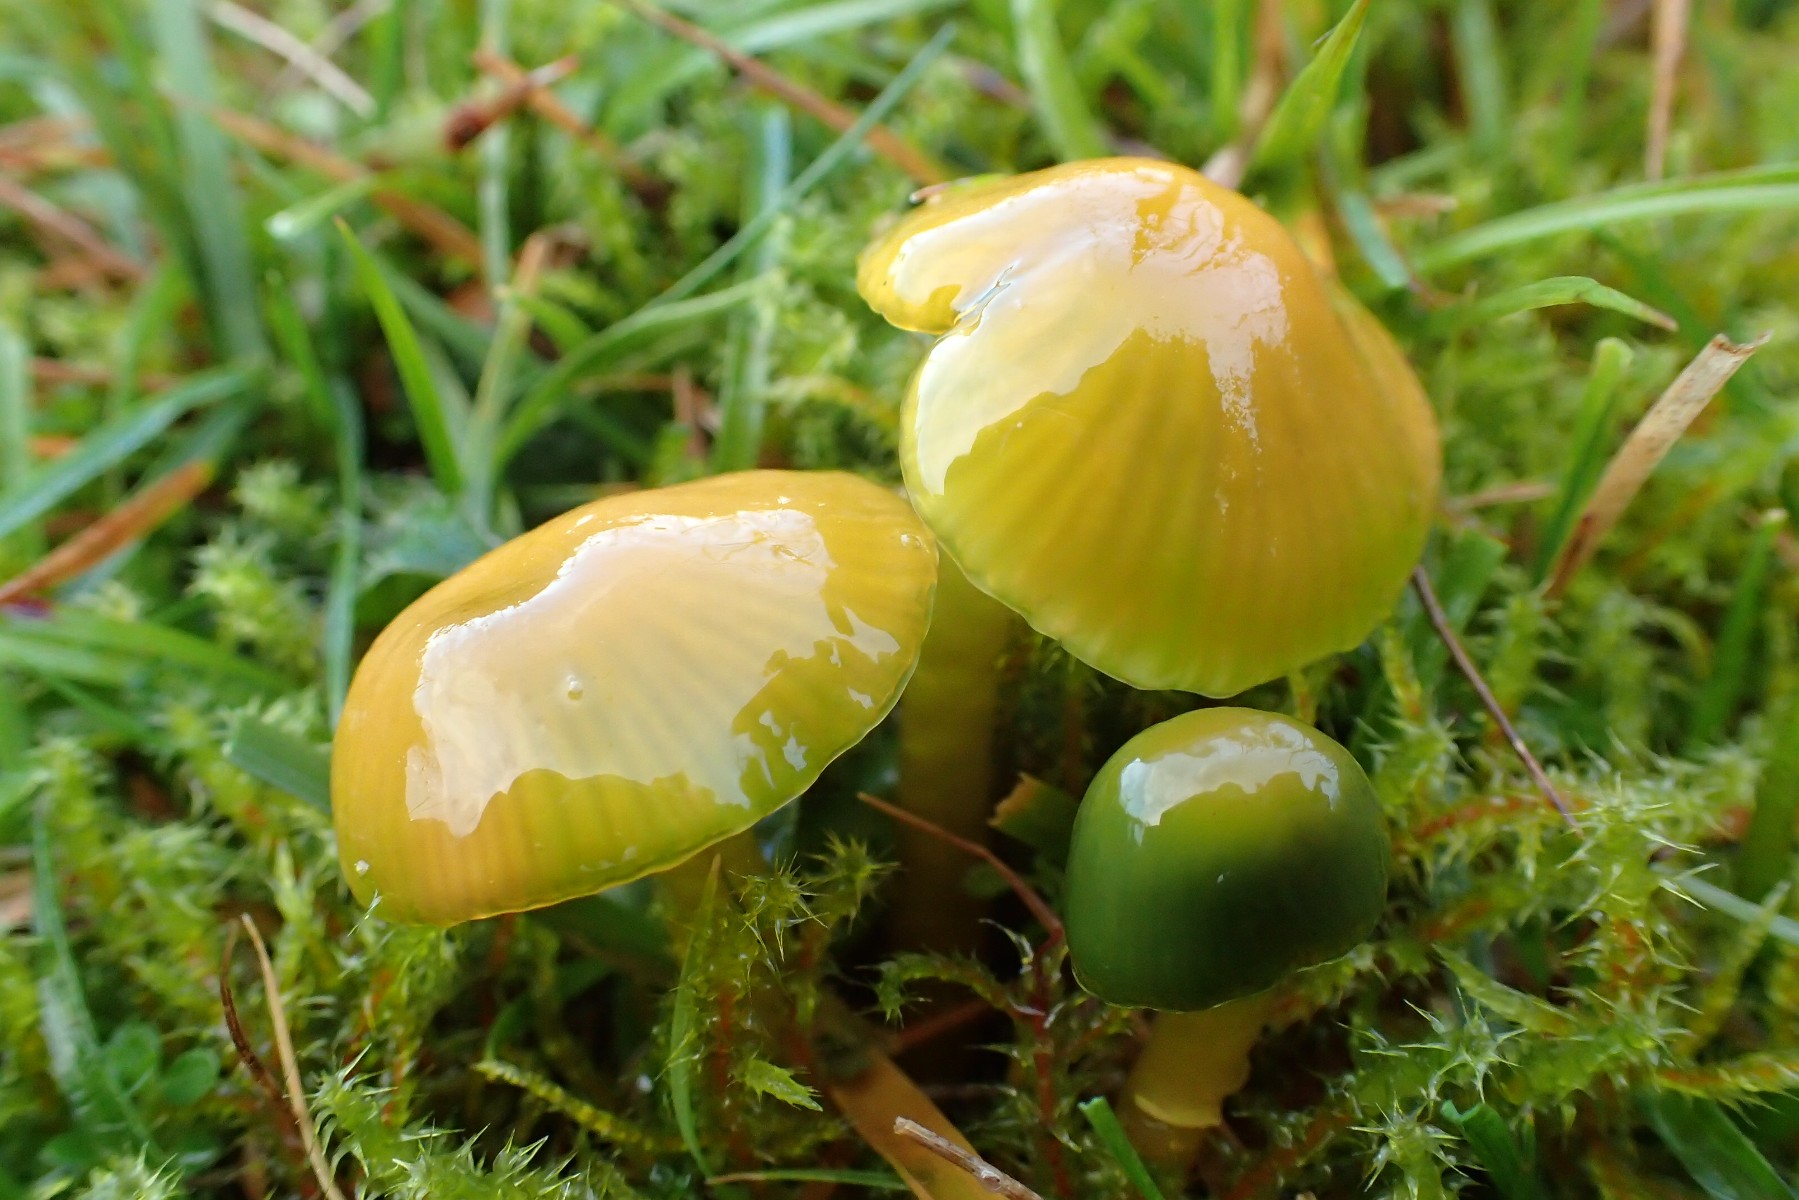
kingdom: Fungi
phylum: Basidiomycota
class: Agaricomycetes
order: Agaricales
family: Hygrophoraceae
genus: Gliophorus
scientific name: Gliophorus psittacinus
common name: papegøje-vokshat
